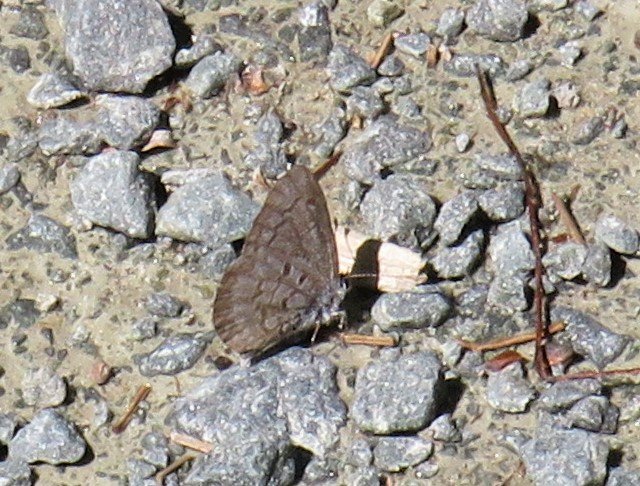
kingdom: Animalia
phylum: Arthropoda
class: Insecta
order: Lepidoptera
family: Lycaenidae
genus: Celastrina
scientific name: Celastrina lucia
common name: Northern Spring Azure
